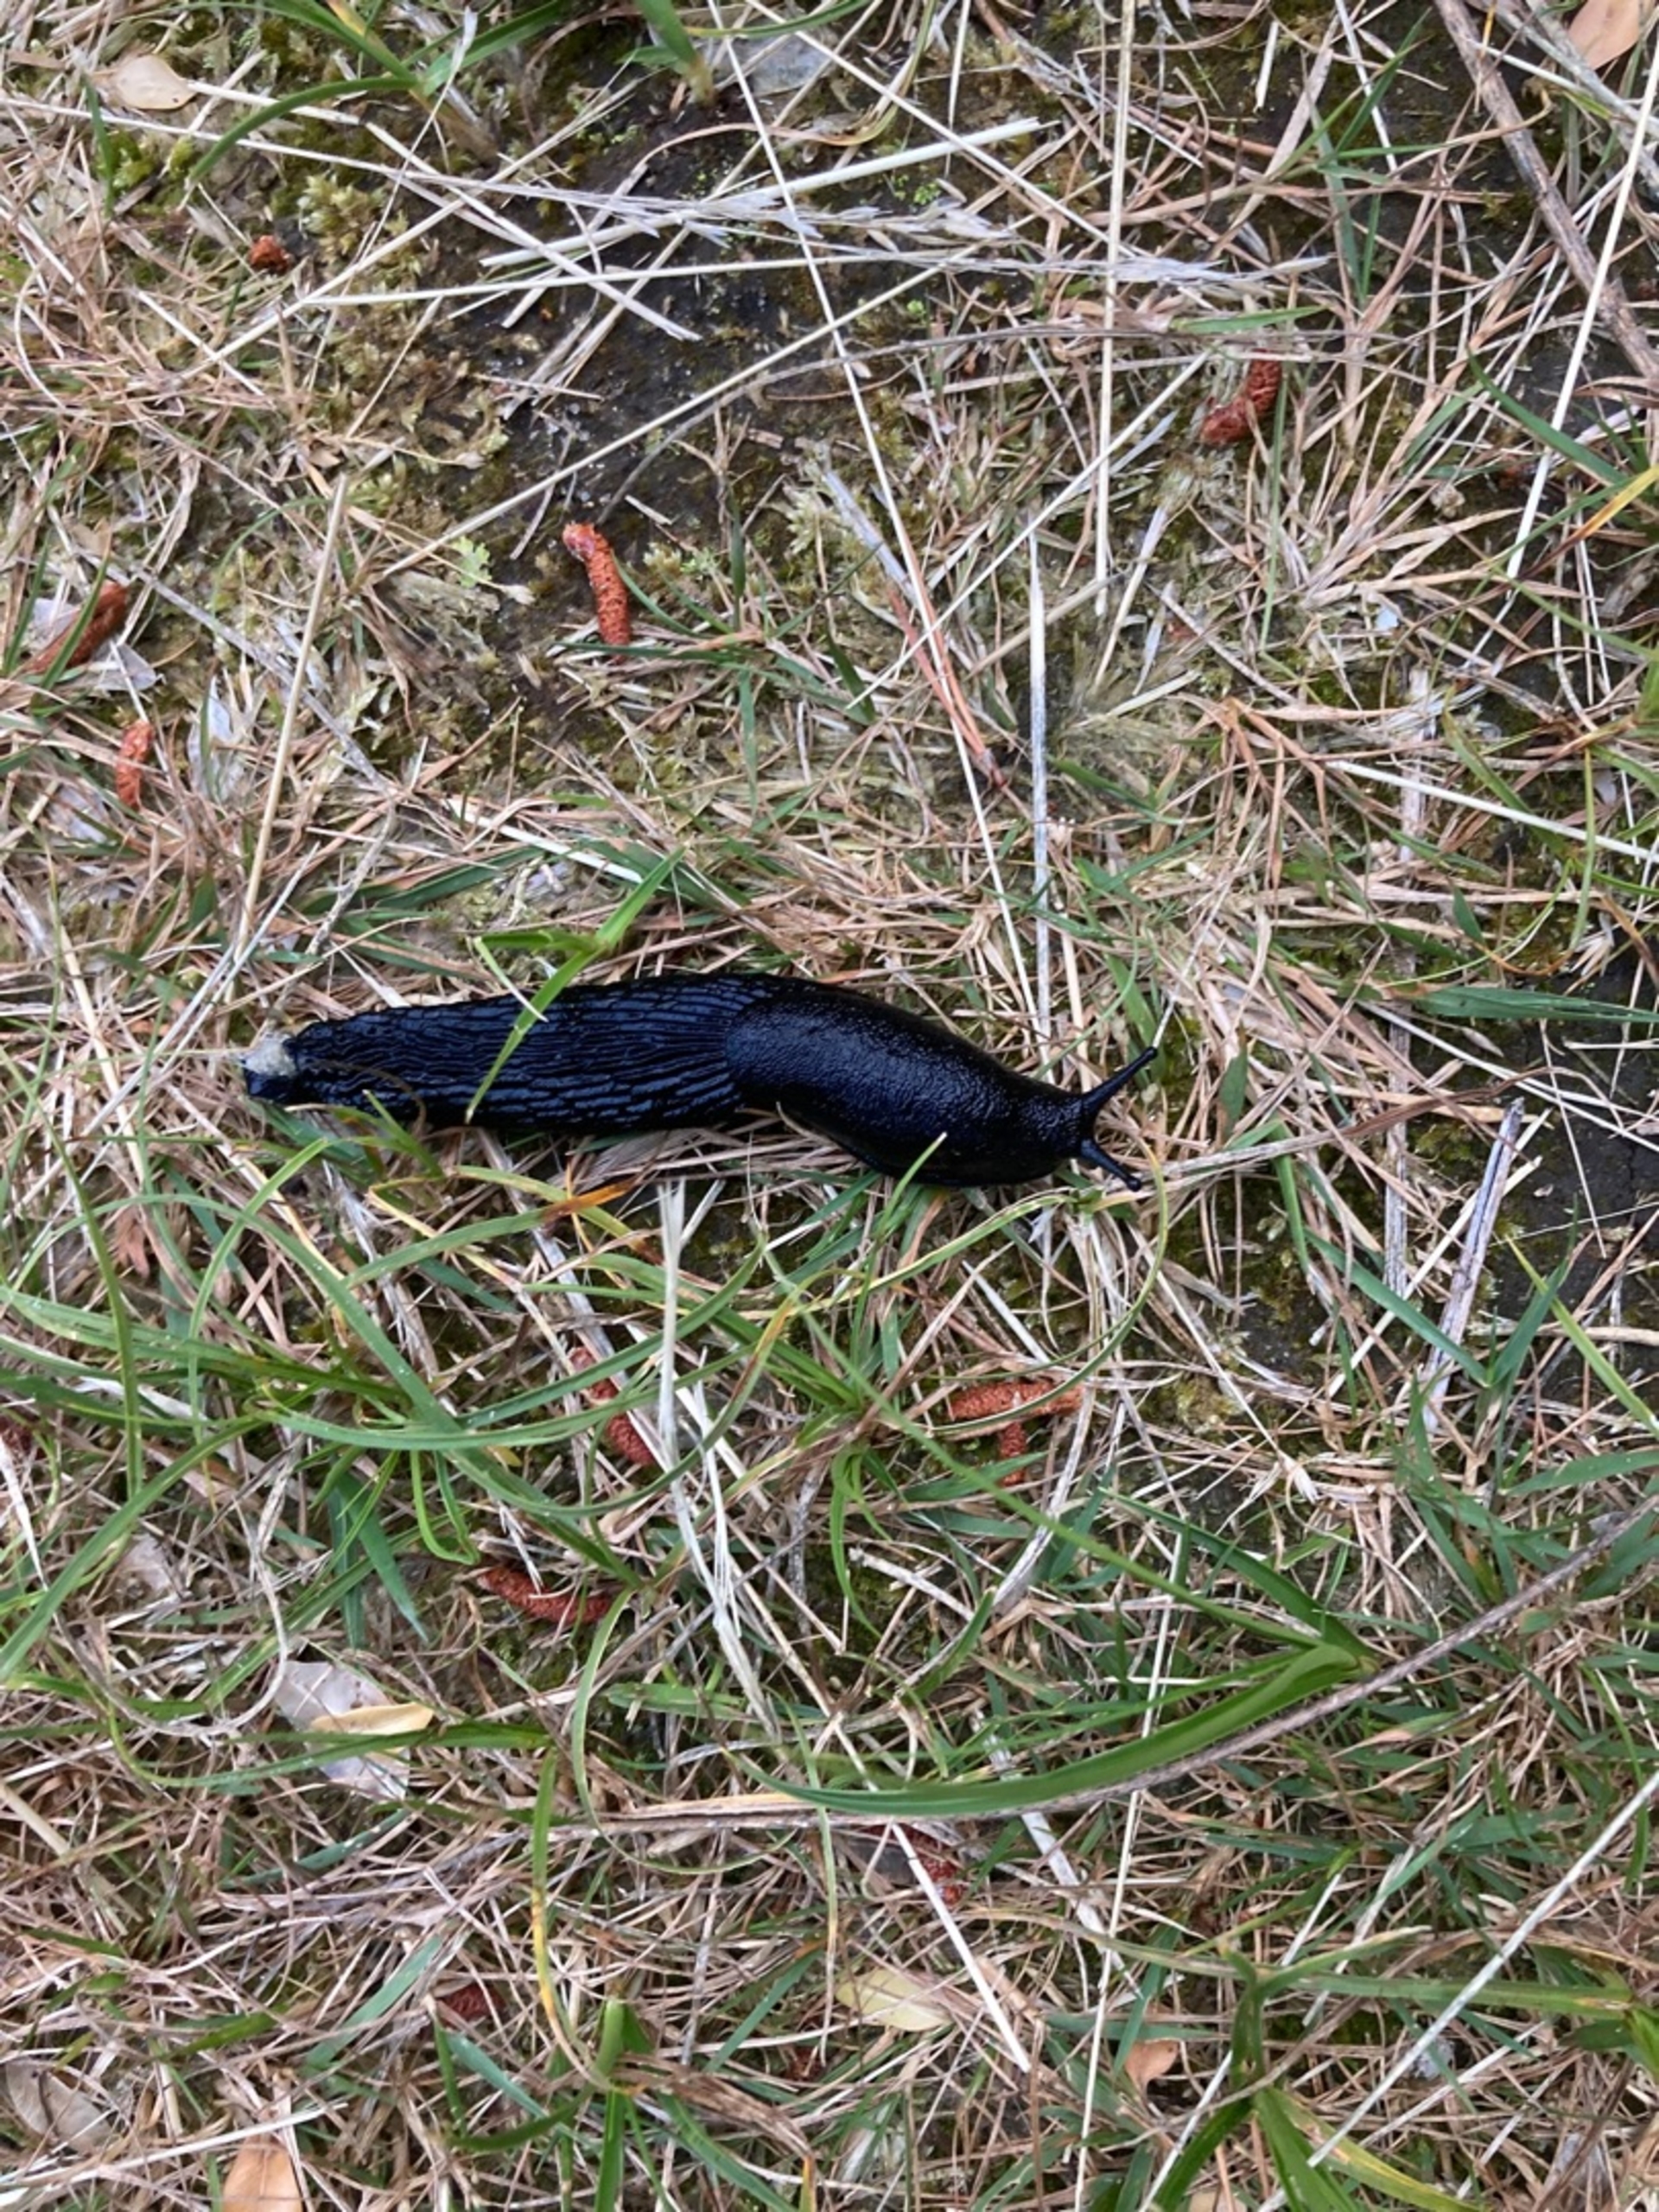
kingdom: Animalia
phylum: Mollusca
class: Gastropoda
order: Stylommatophora
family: Arionidae
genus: Arion
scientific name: Arion ater
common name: Sort skovsnegl
